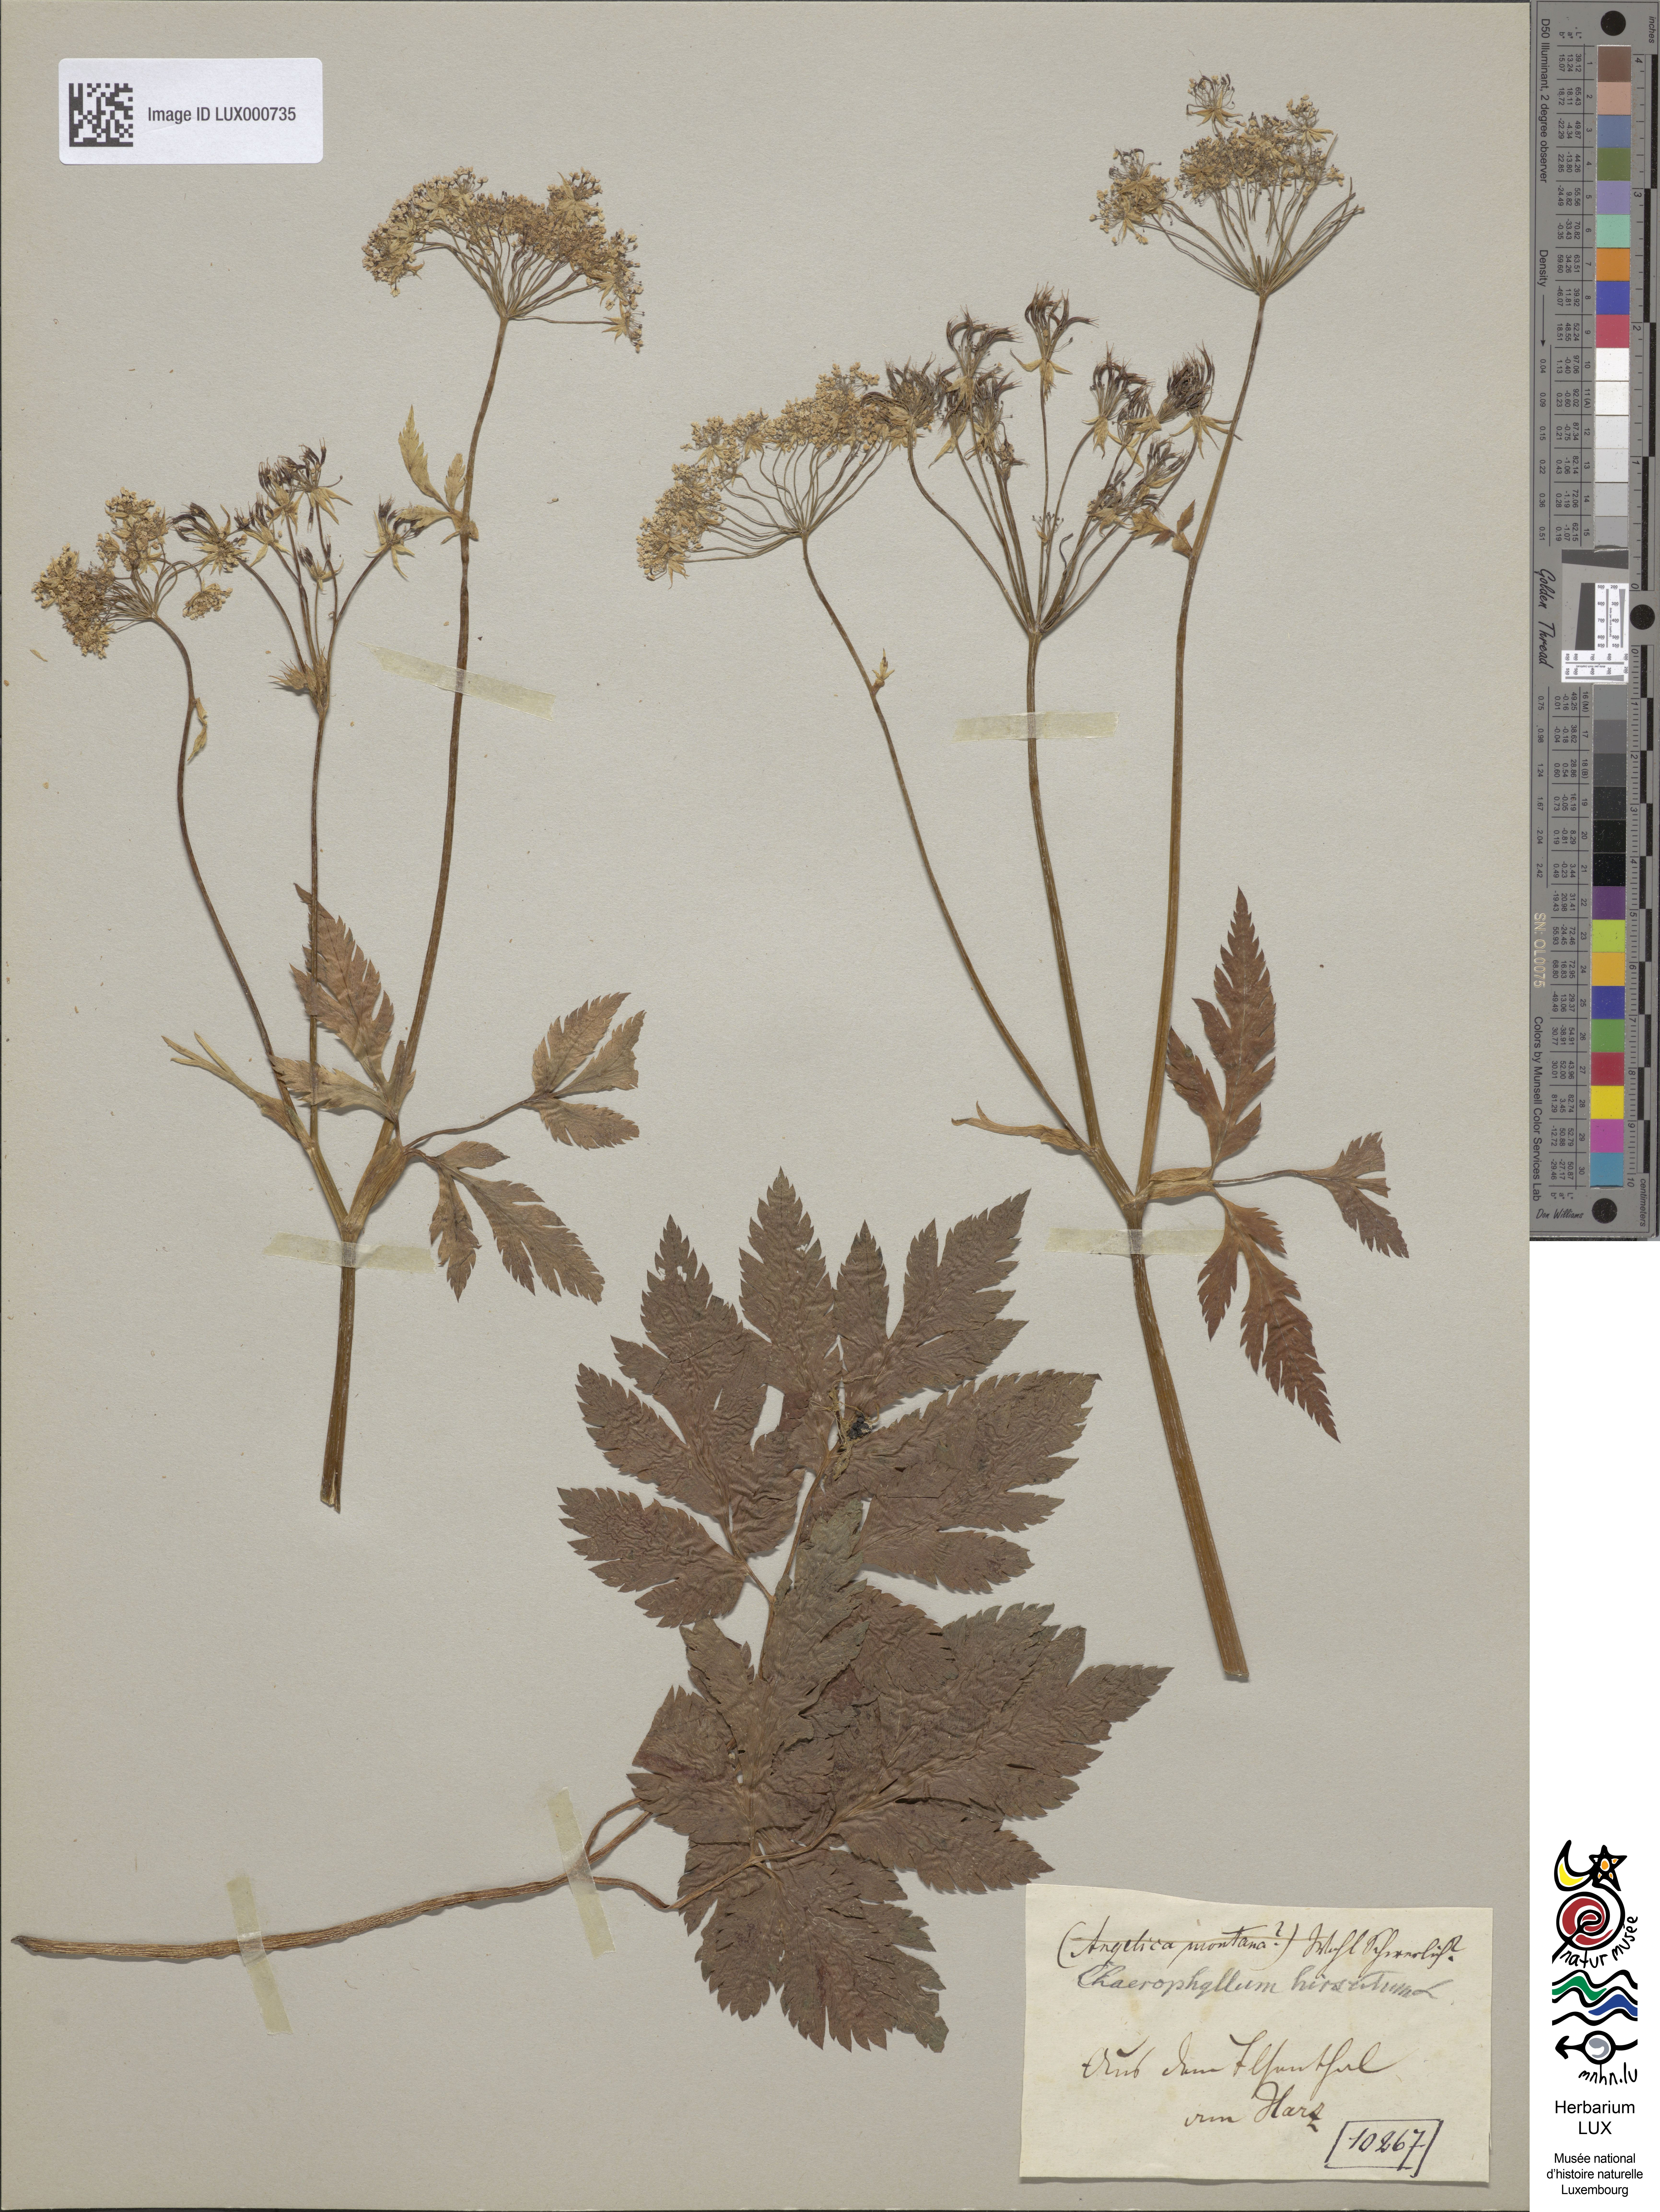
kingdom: Plantae
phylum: Tracheophyta
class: Magnoliopsida
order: Apiales
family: Apiaceae
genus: Chaerophyllum
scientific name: Chaerophyllum hirsutum
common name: Hairy chervil
